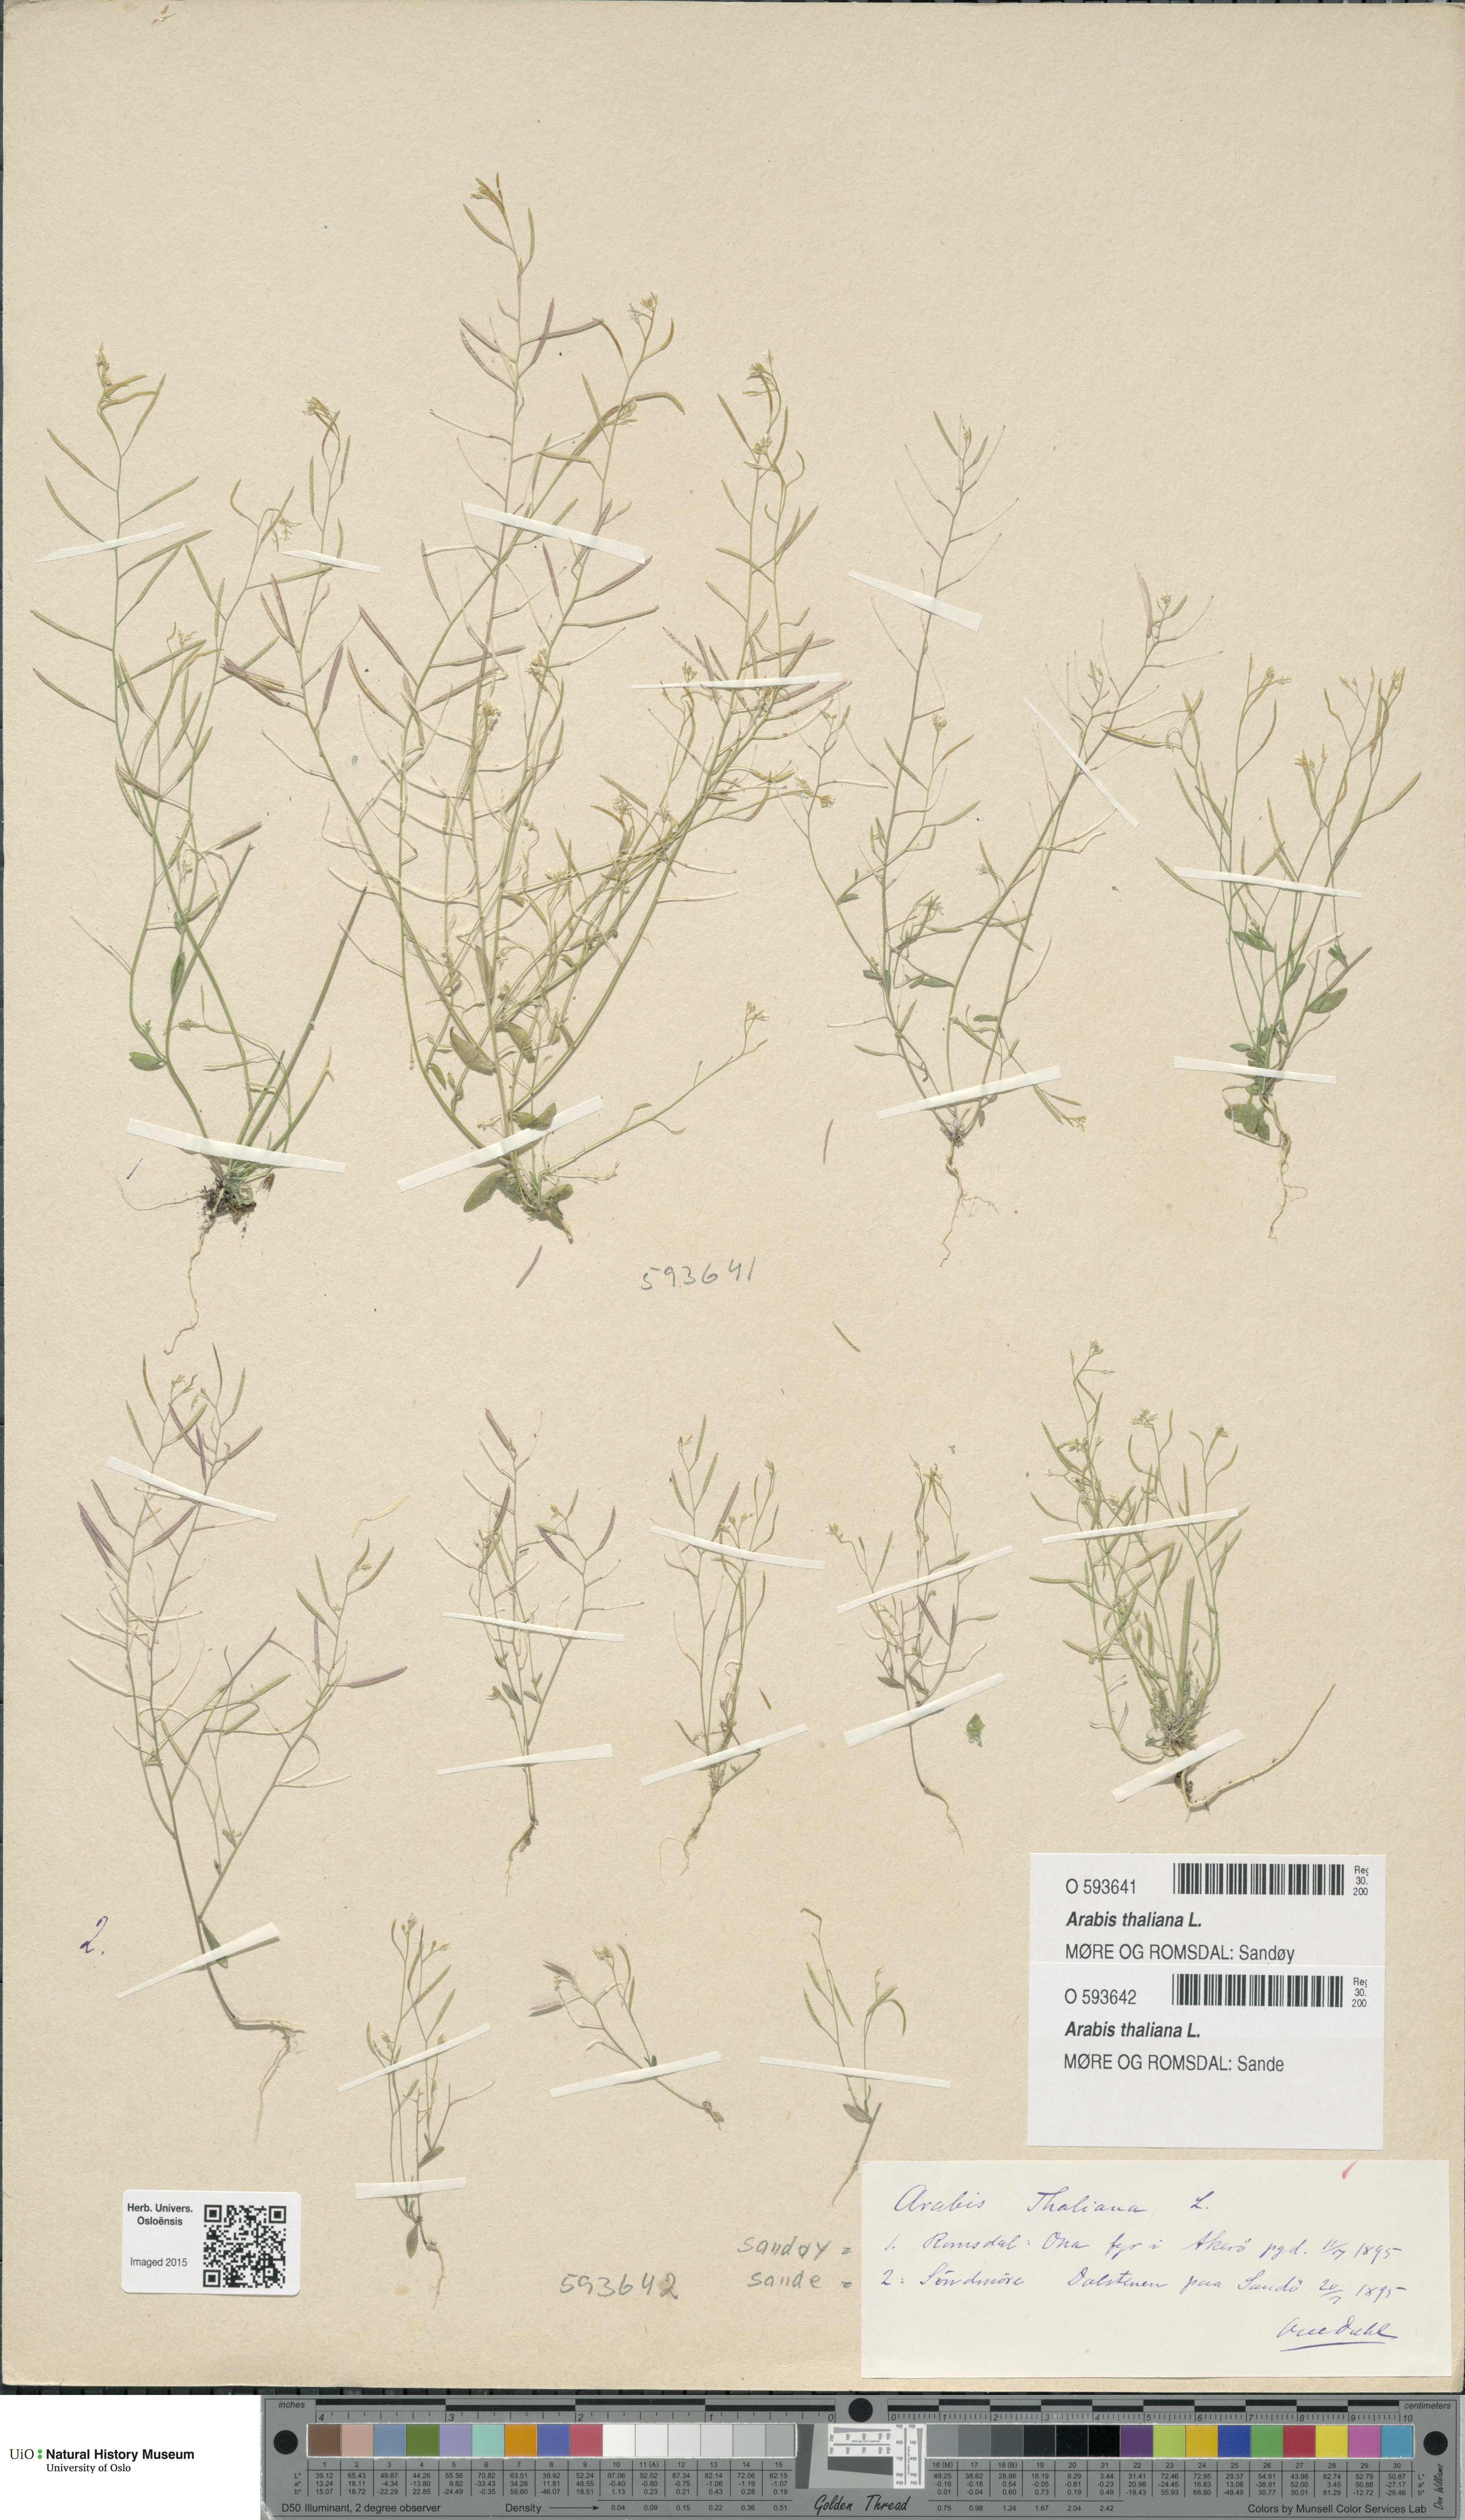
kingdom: Plantae
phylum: Tracheophyta
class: Magnoliopsida
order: Brassicales
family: Brassicaceae
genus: Arabidopsis
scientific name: Arabidopsis thaliana
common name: Thale cress
